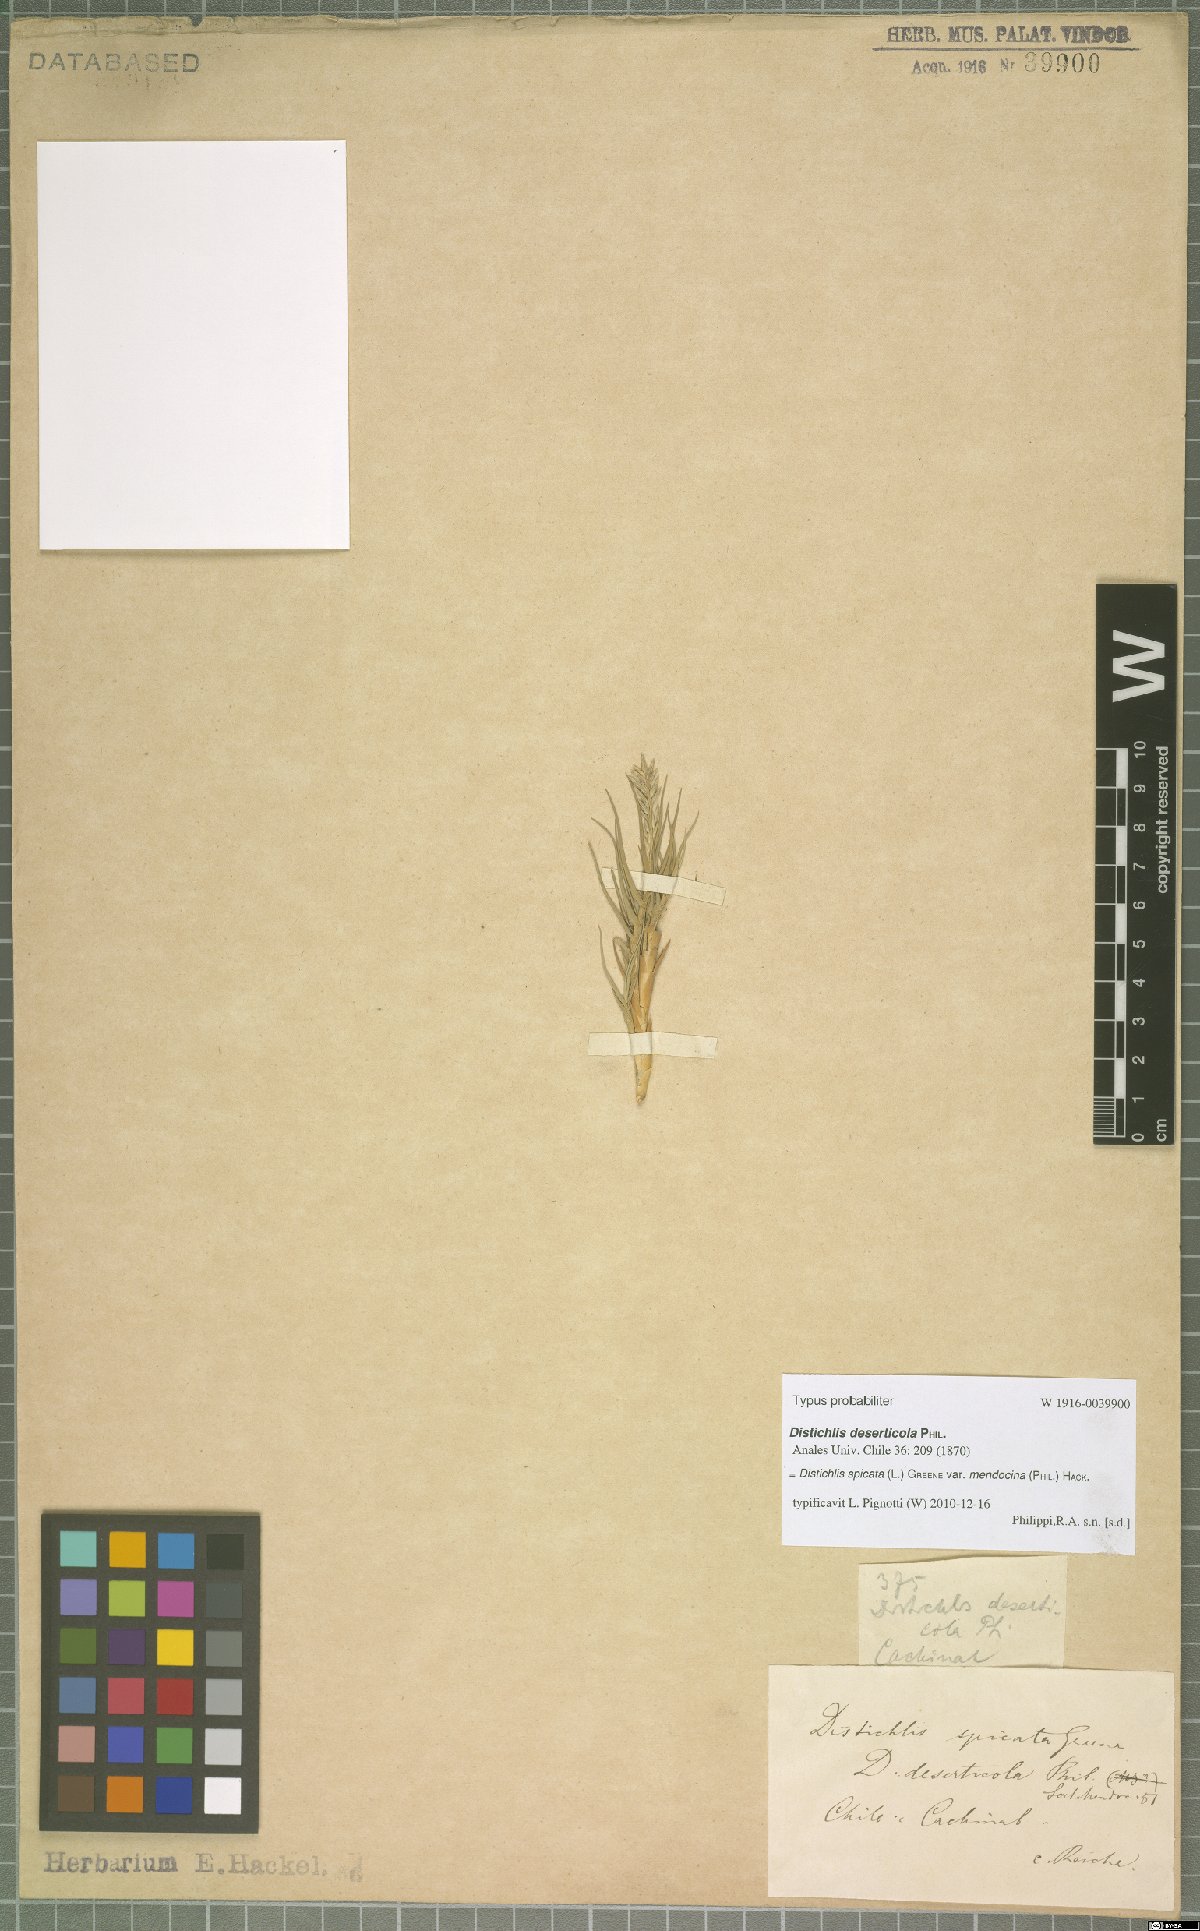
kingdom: Plantae
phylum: Tracheophyta
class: Liliopsida
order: Poales
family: Poaceae
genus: Distichlis
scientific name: Distichlis spicata
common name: Saltgrass
